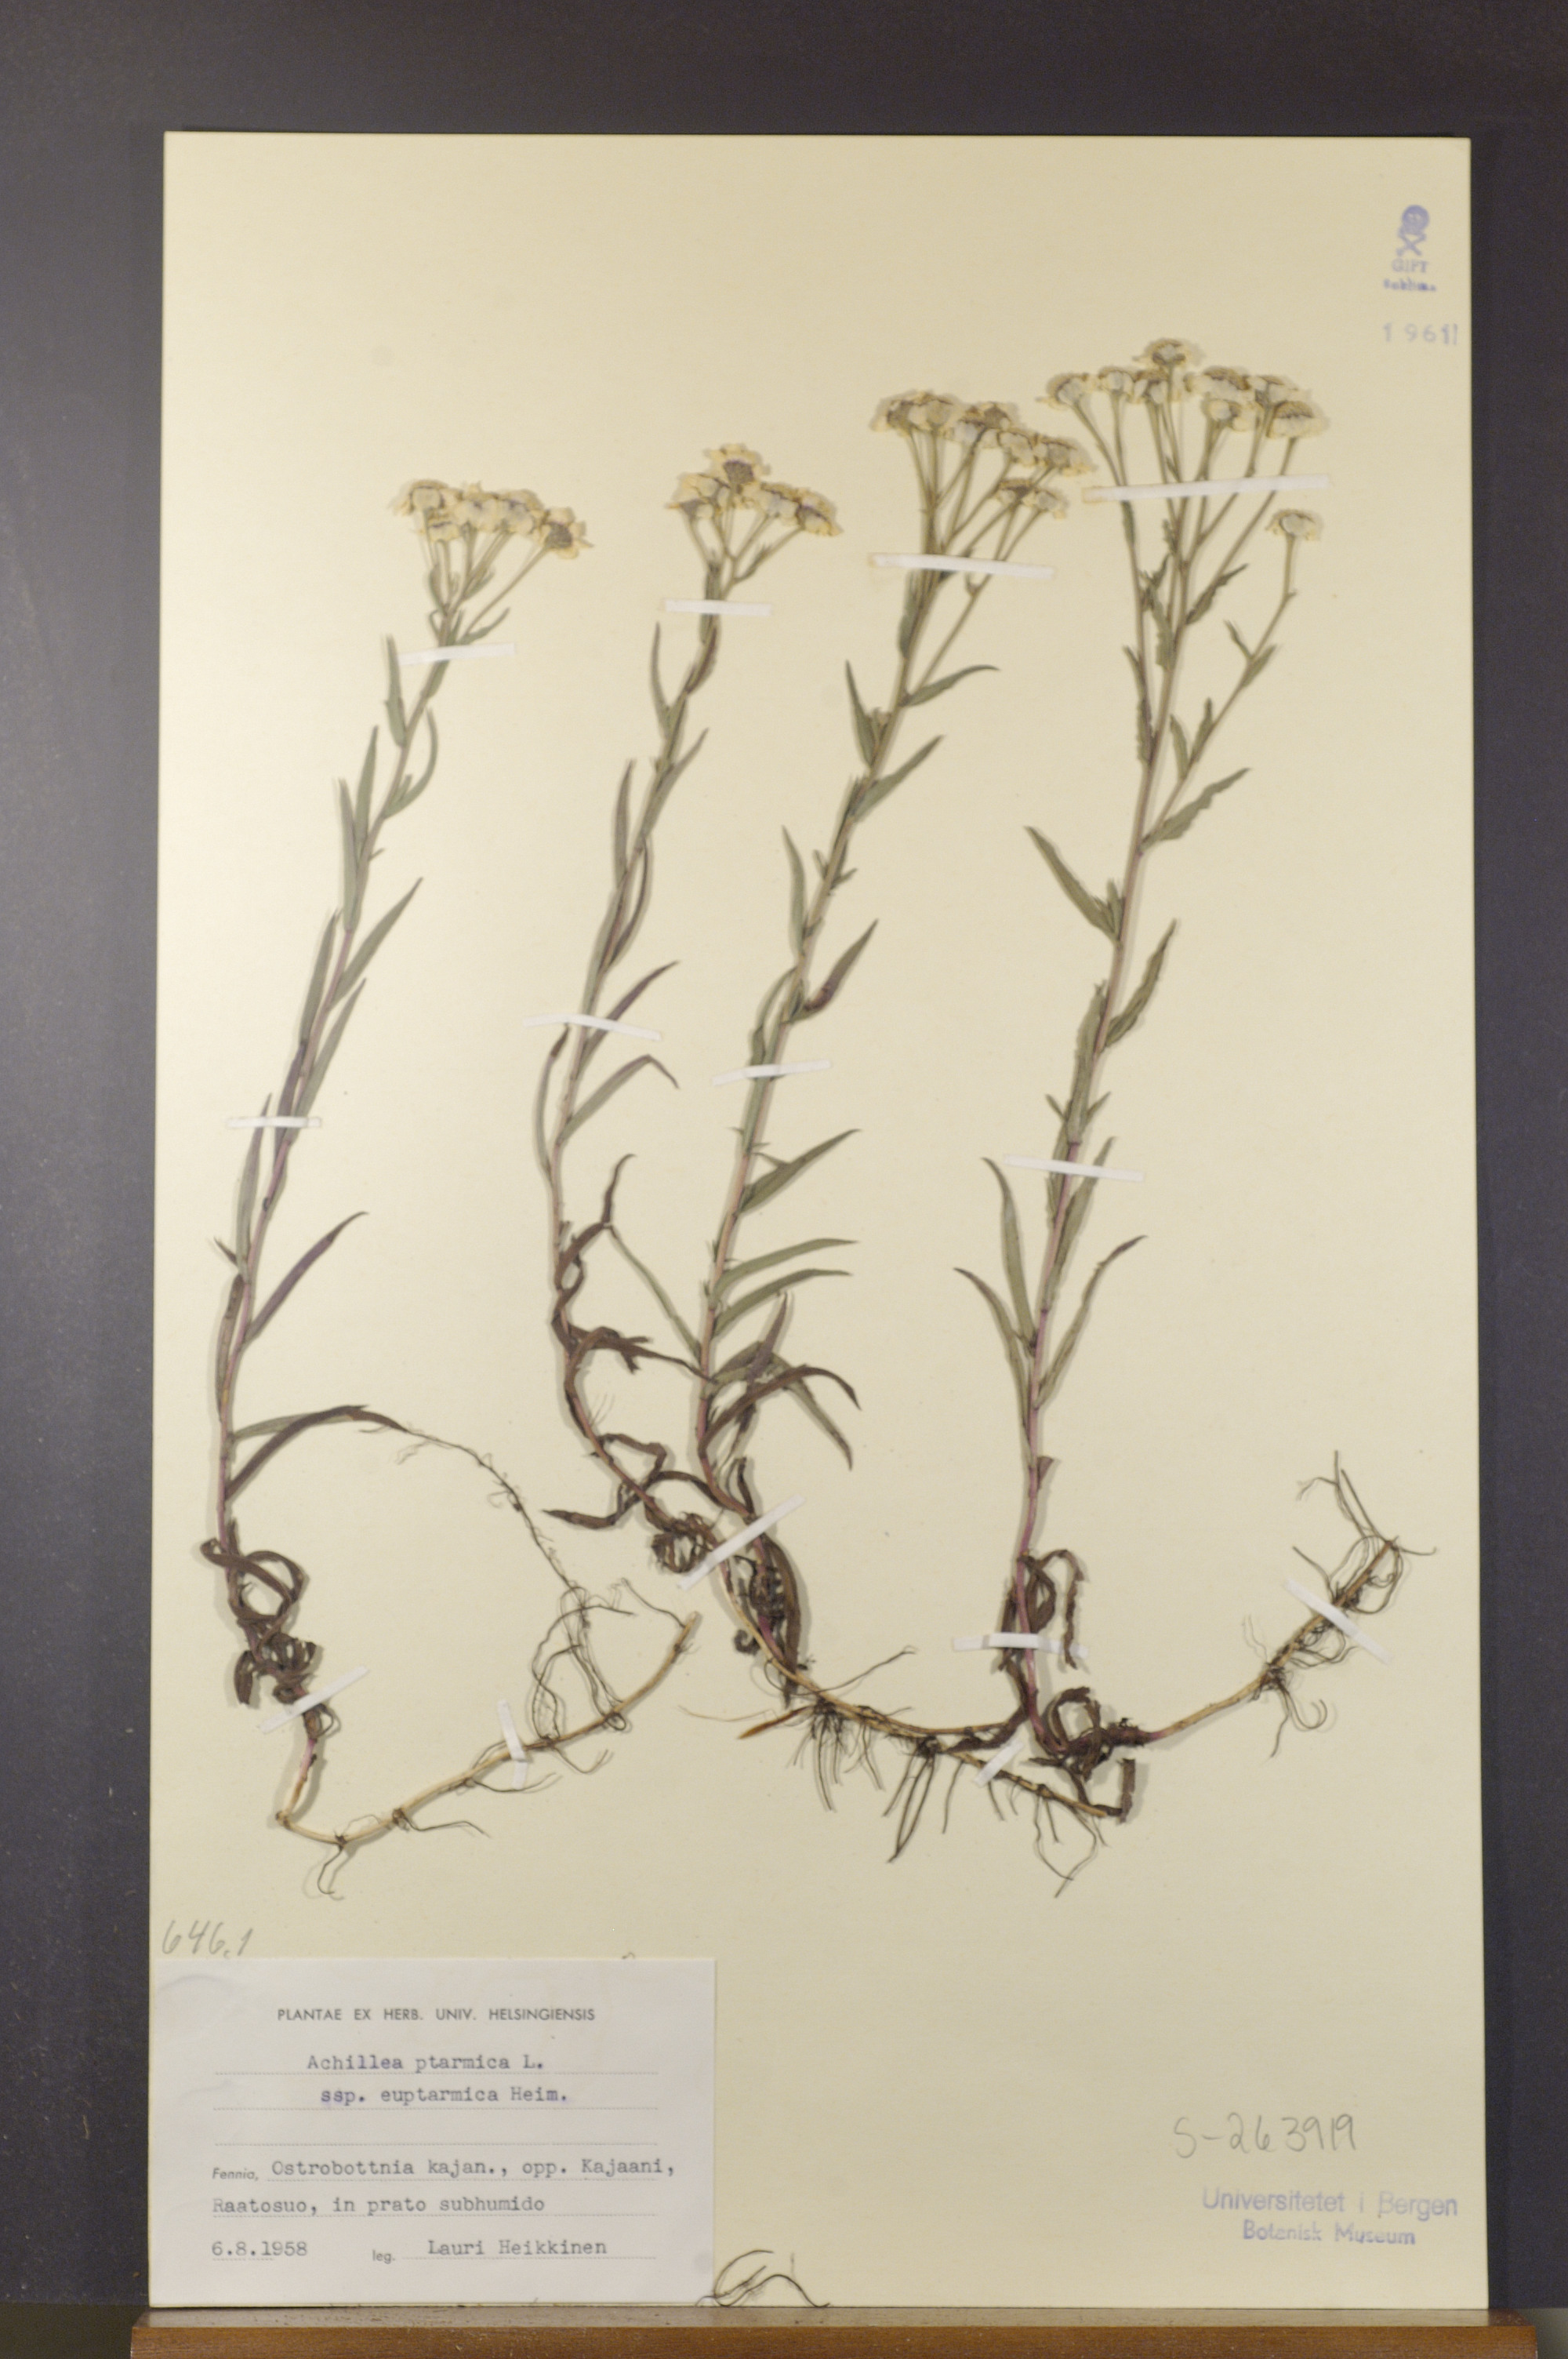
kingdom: Plantae
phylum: Tracheophyta
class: Magnoliopsida
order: Asterales
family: Asteraceae
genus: Achillea
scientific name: Achillea ptarmica
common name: Sneezeweed
